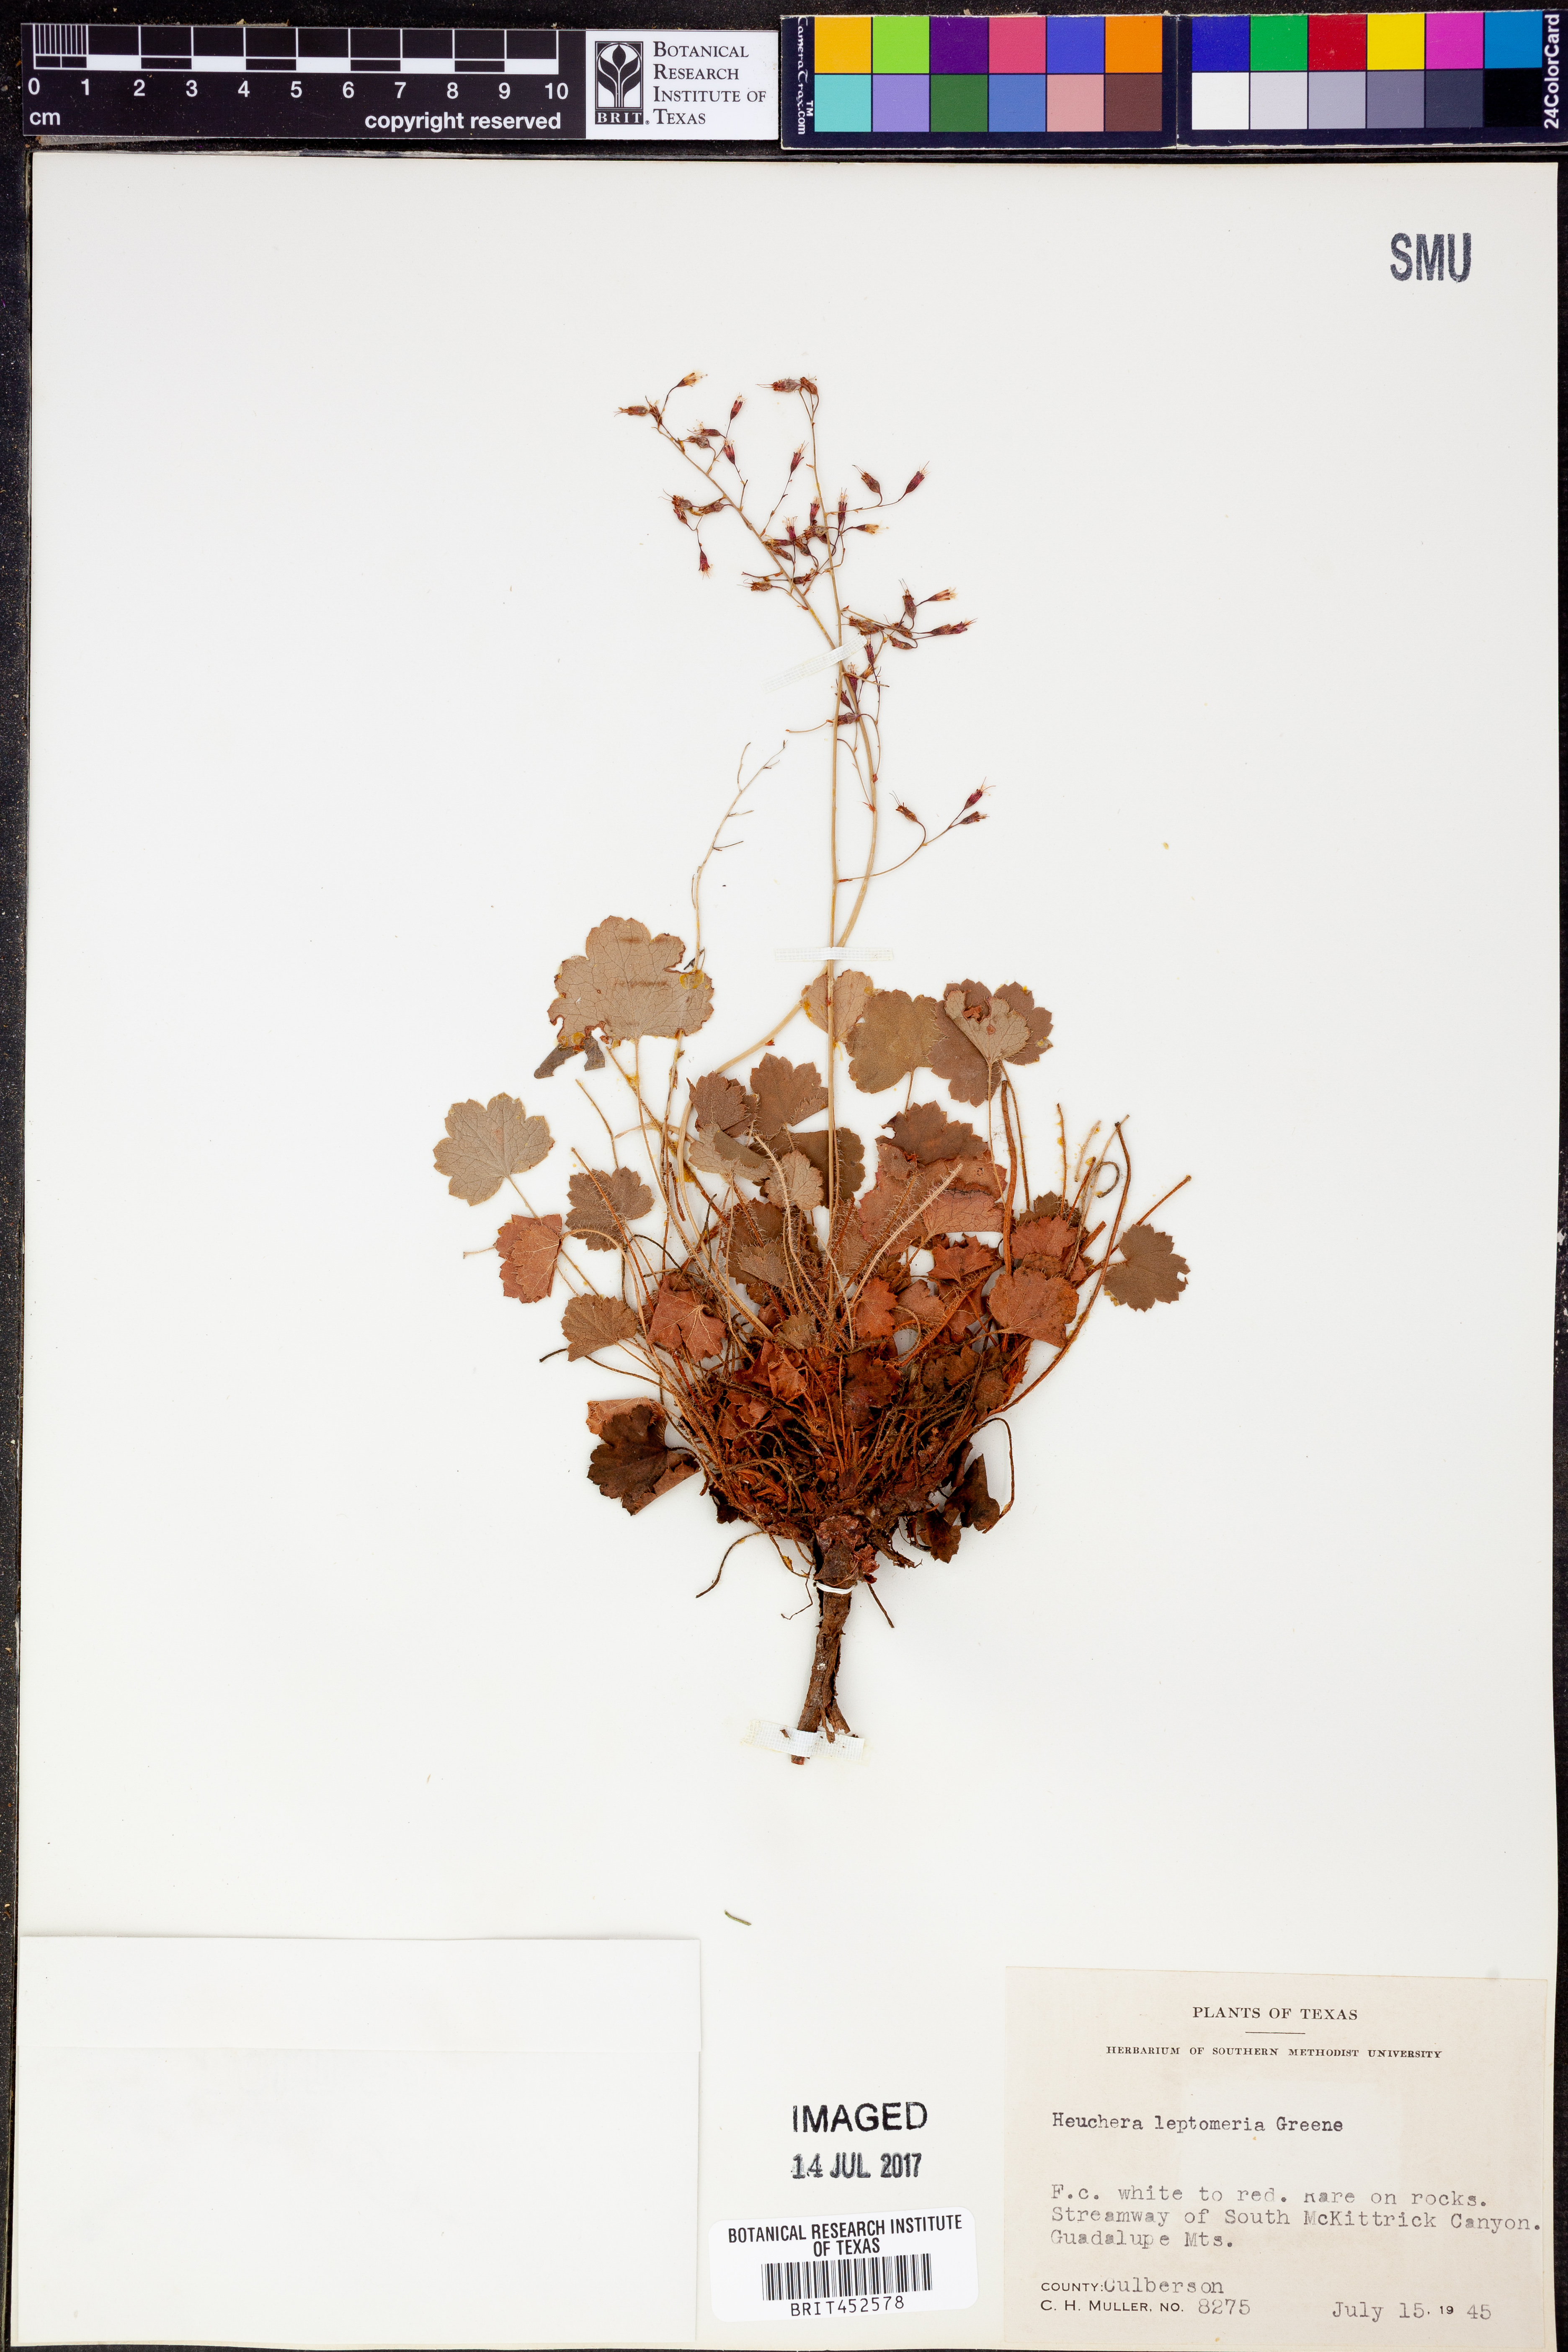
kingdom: Plantae
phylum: Tracheophyta
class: Magnoliopsida
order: Saxifragales
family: Saxifragaceae
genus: Heuchera
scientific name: Heuchera rubescens
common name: Jack-o'the-rocks
